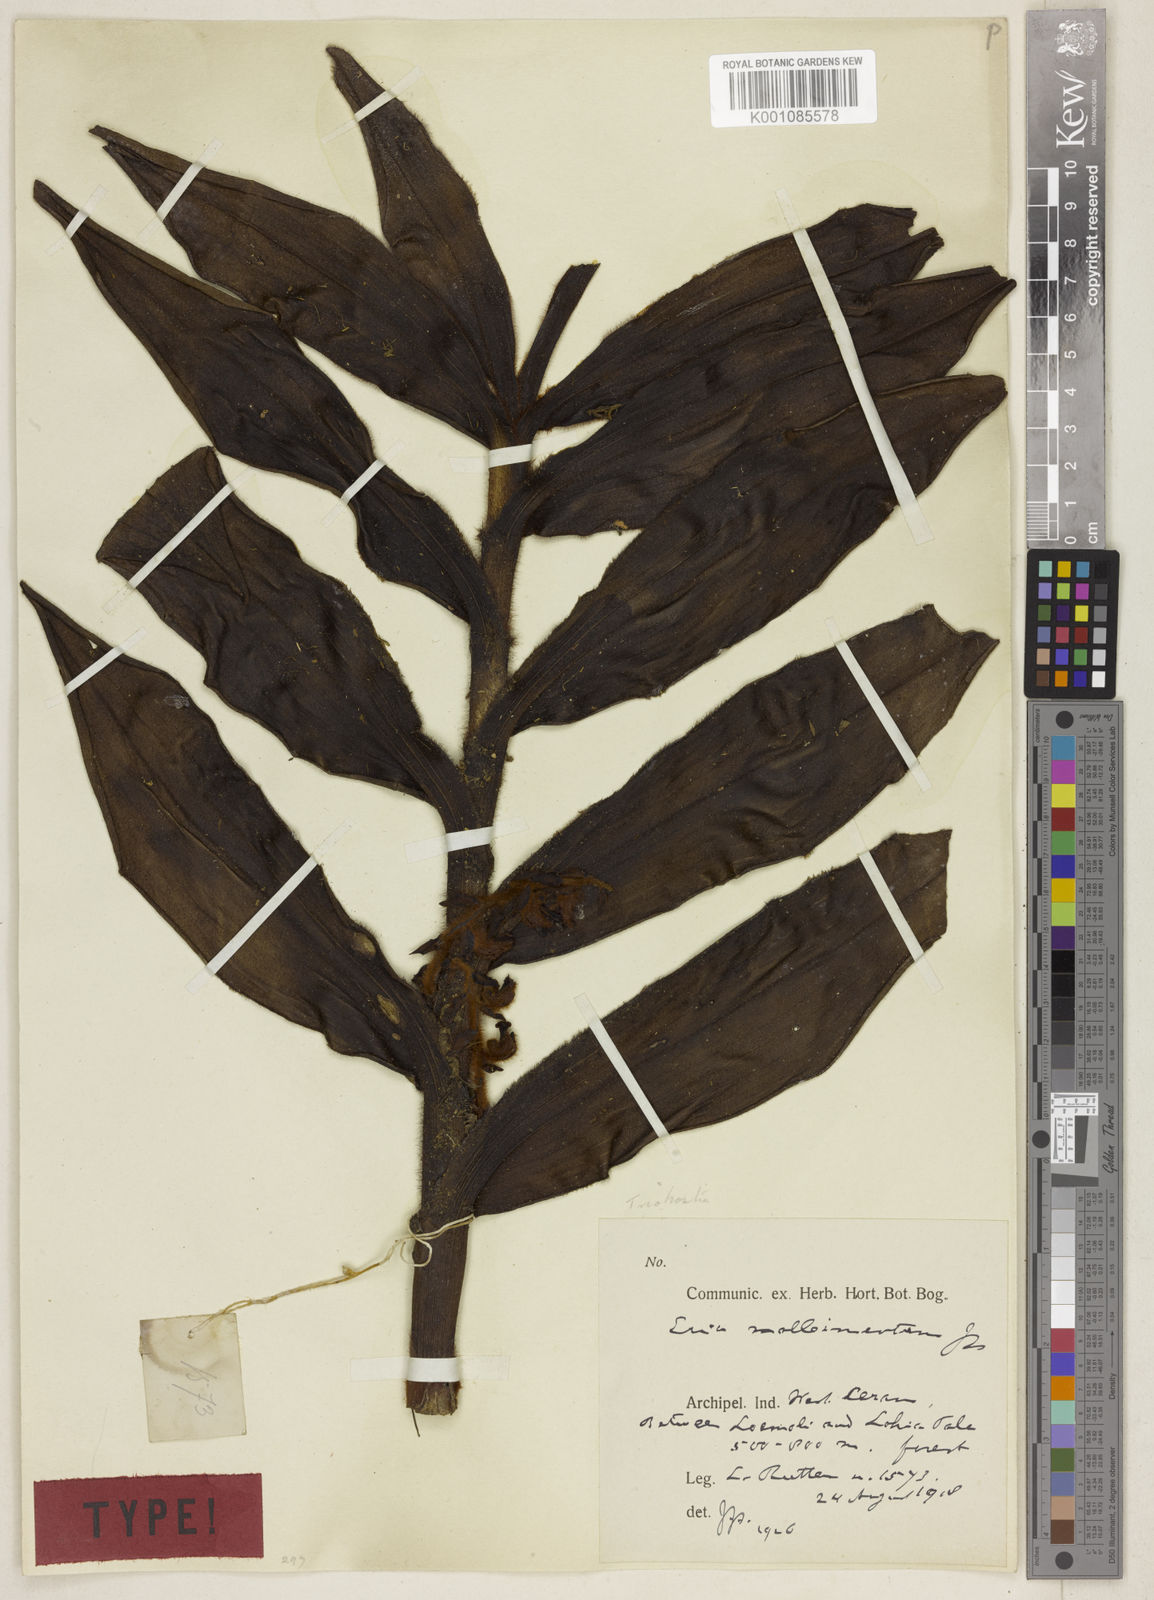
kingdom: Plantae
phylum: Tracheophyta
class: Liliopsida
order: Asparagales
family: Orchidaceae
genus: Trichotosia
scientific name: Trichotosia mollicaulis
